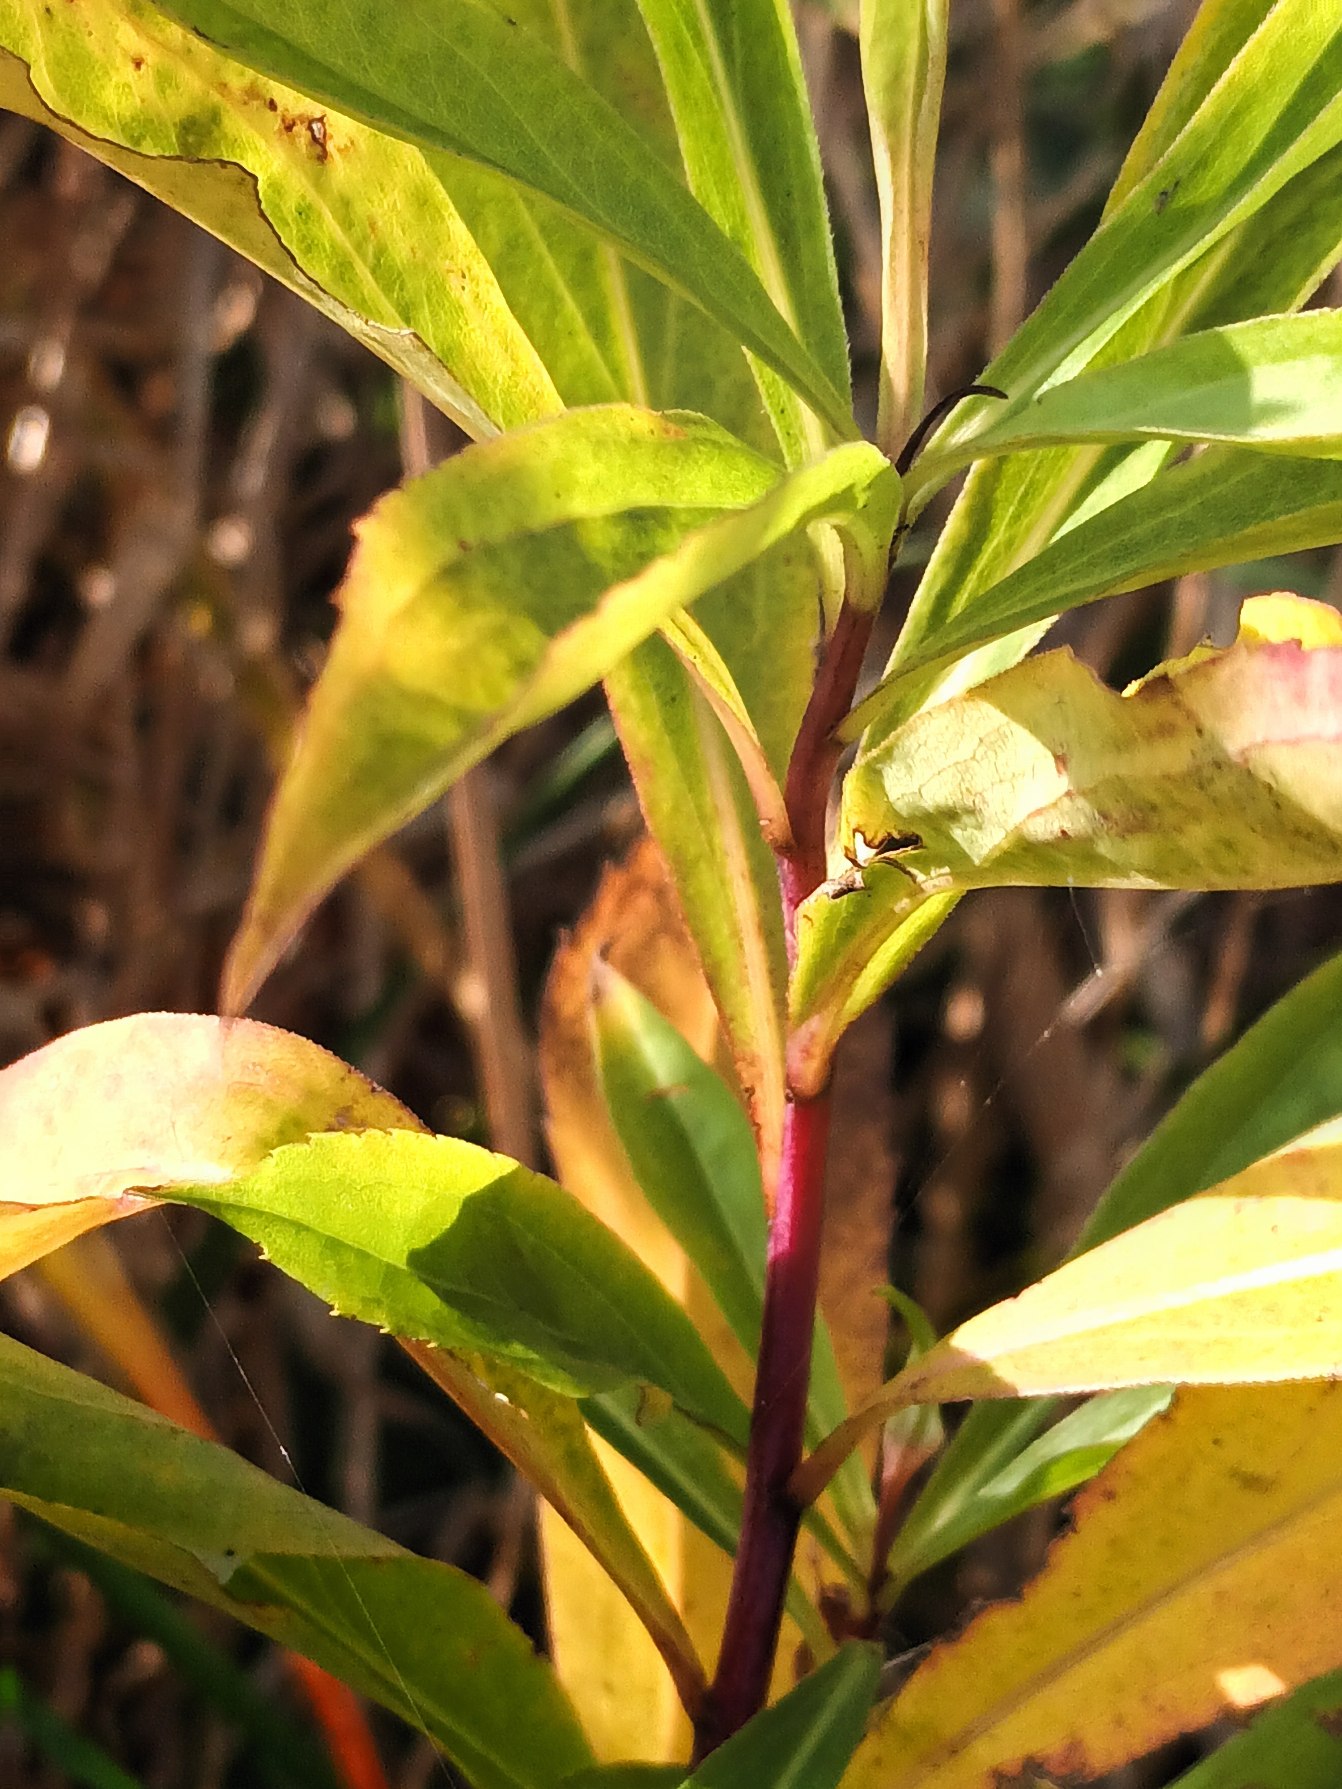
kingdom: Plantae
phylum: Tracheophyta
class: Magnoliopsida
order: Asterales
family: Asteraceae
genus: Solidago
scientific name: Solidago gigantea
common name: Sildig gyldenris
